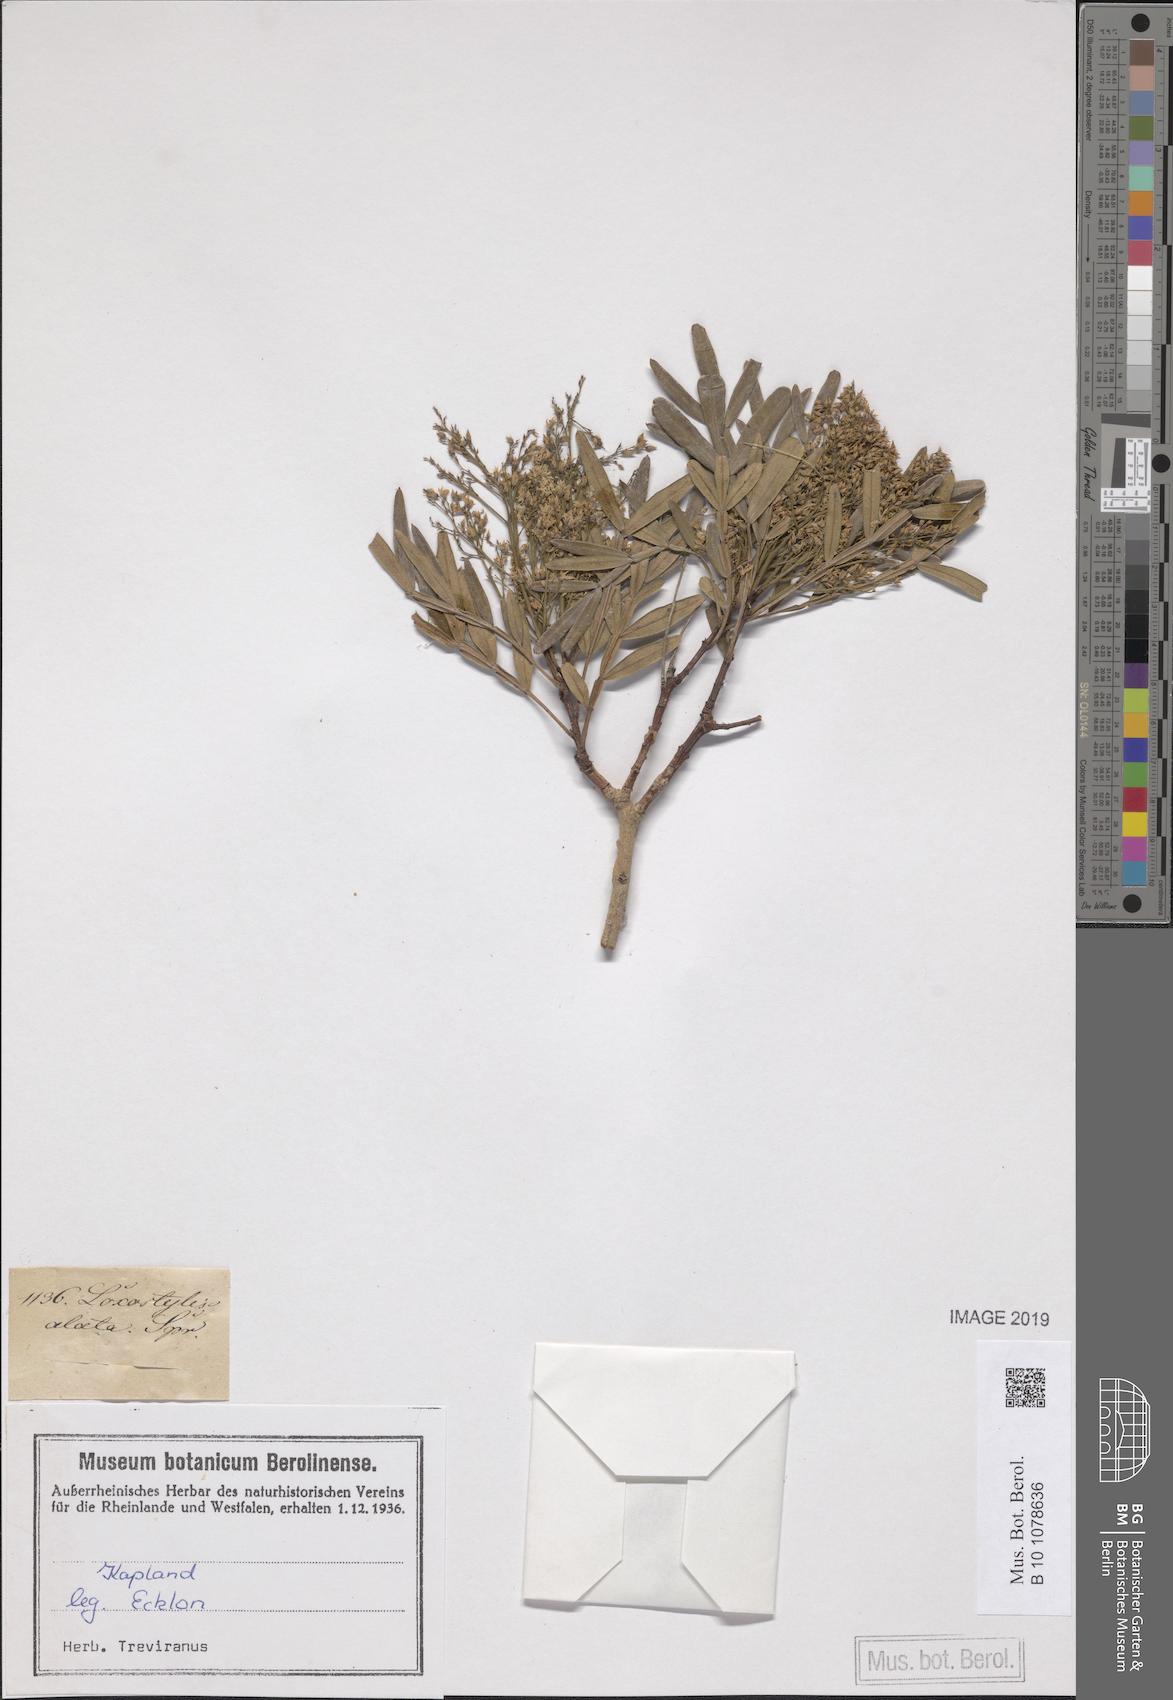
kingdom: Plantae
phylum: Tracheophyta
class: Magnoliopsida
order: Sapindales
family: Anacardiaceae
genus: Loxostylis
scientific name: Loxostylis alata
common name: Wild peppertree
